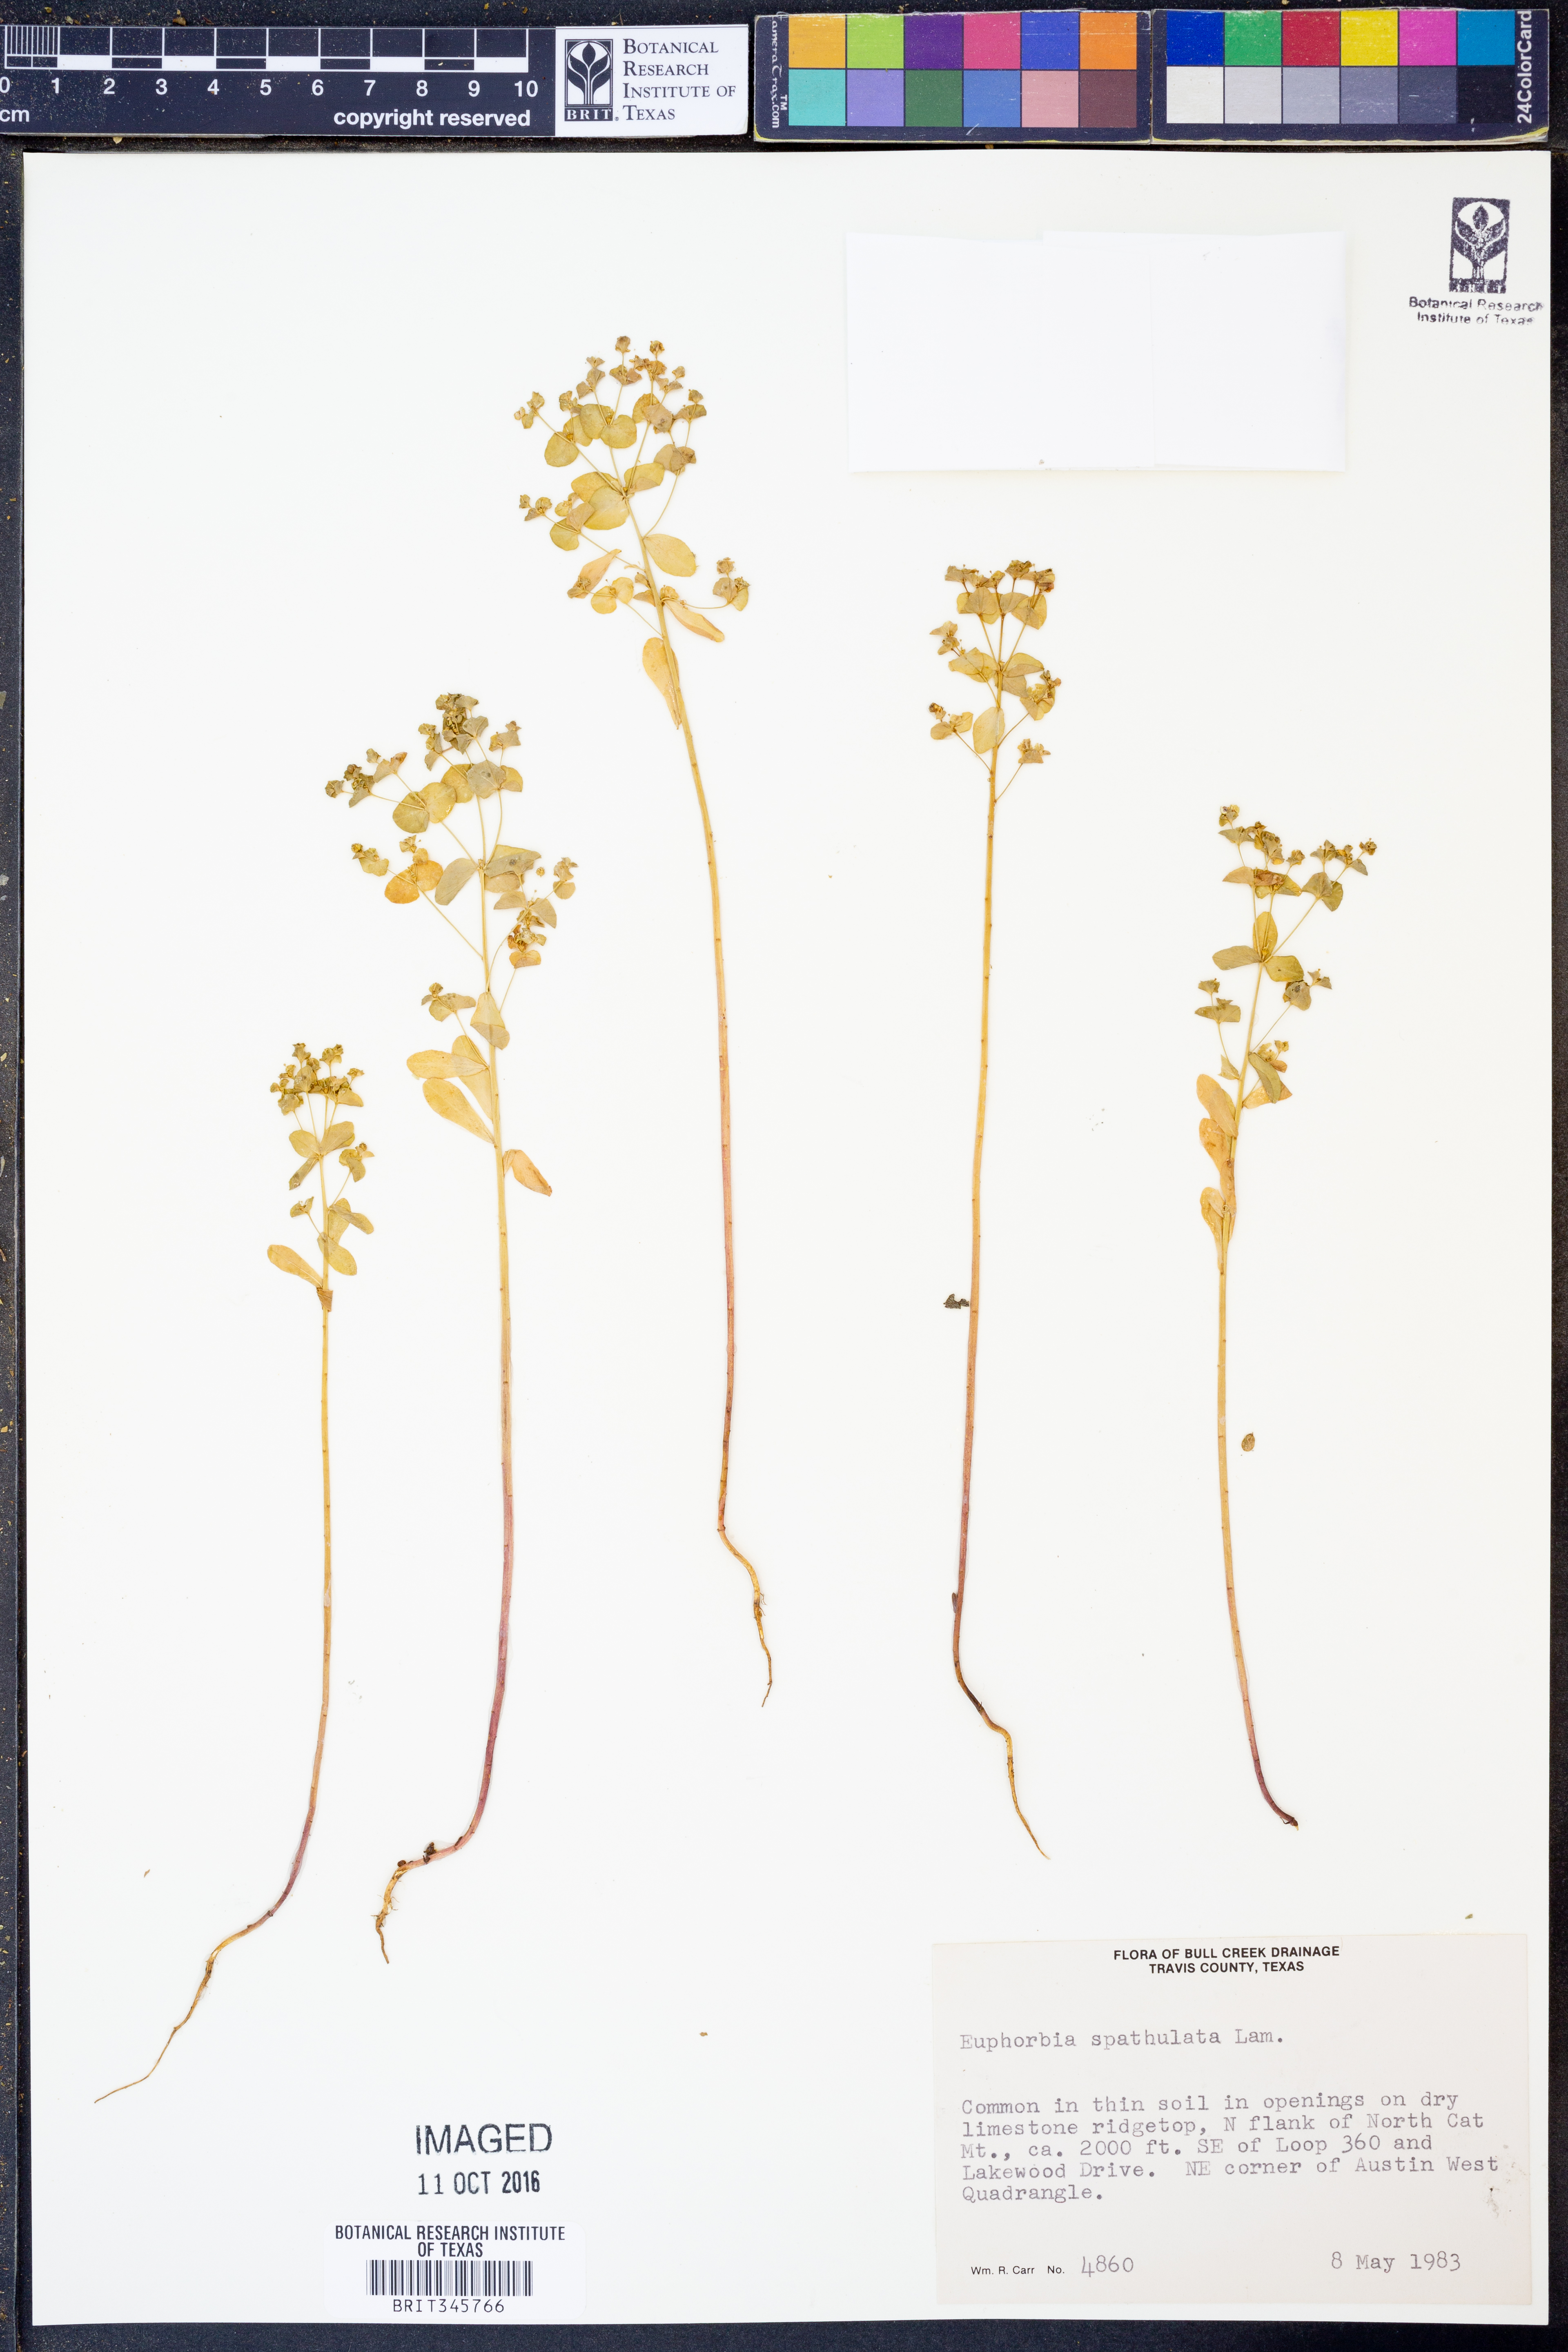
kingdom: Plantae
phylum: Tracheophyta
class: Magnoliopsida
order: Malpighiales
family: Euphorbiaceae
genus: Euphorbia
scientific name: Euphorbia spathulata
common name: Blunt spurge
